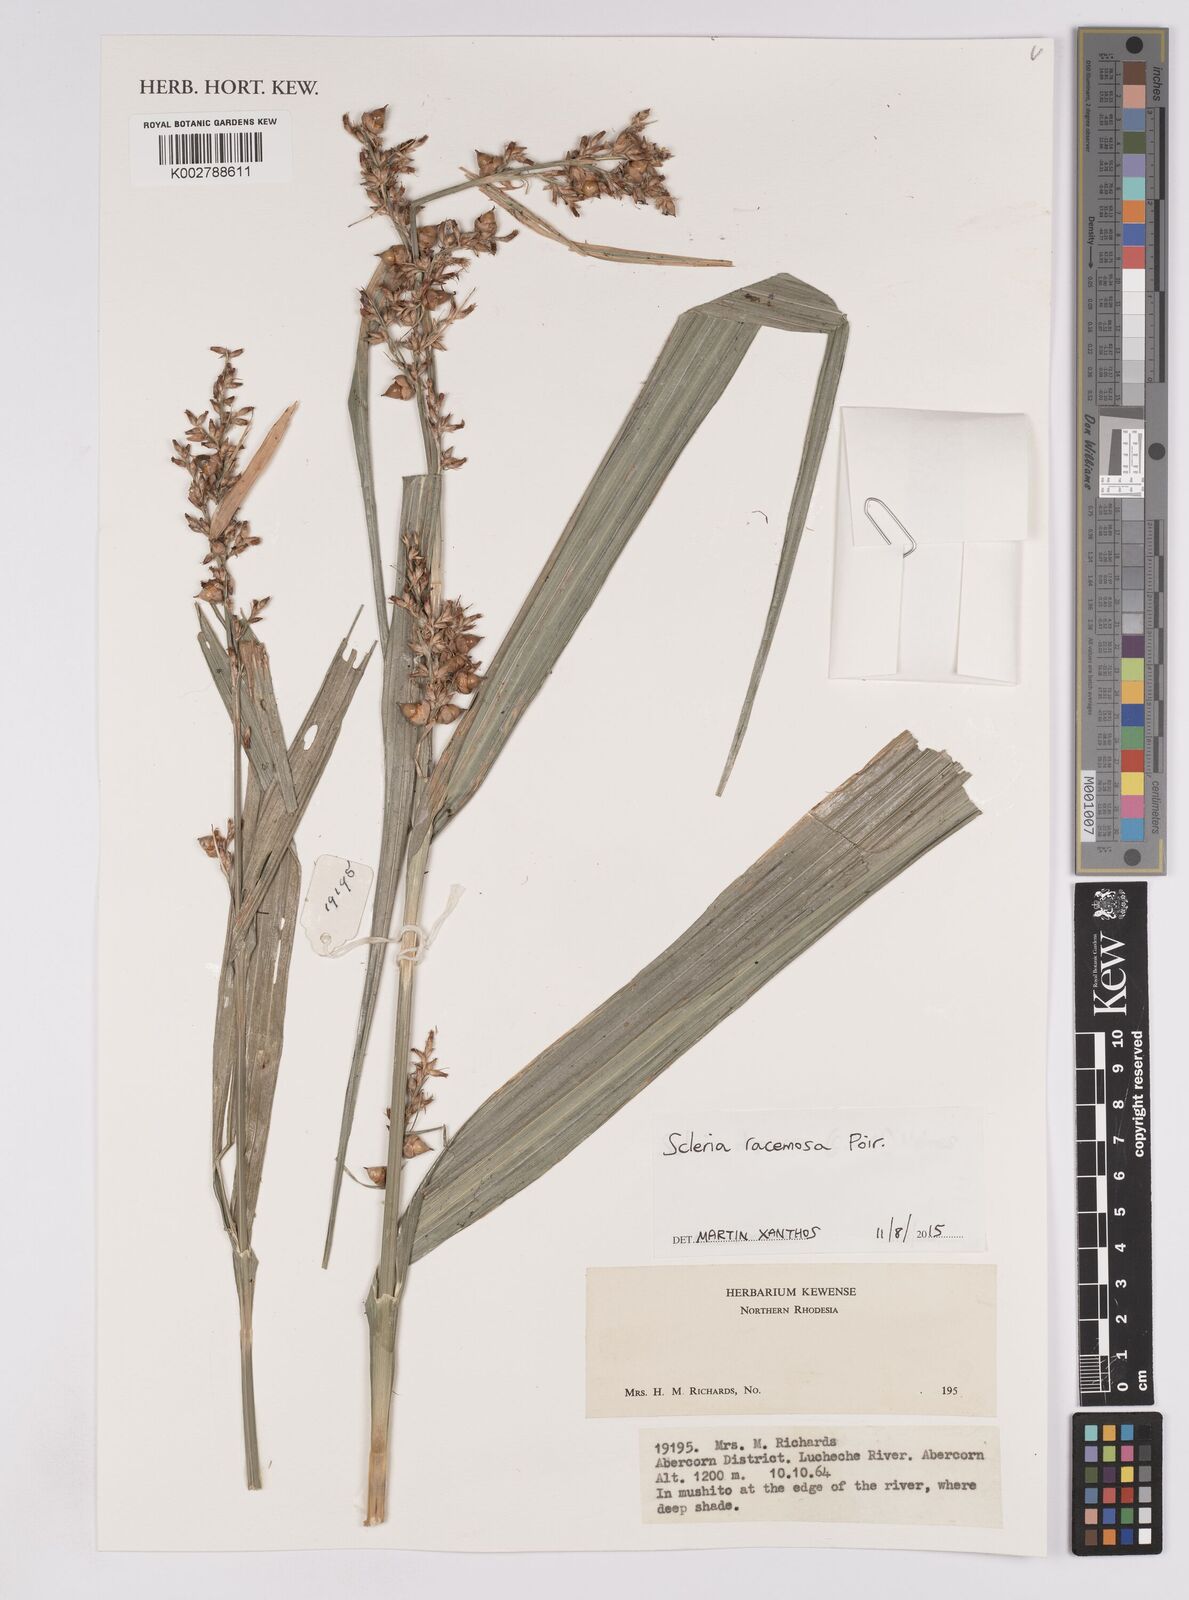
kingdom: Plantae
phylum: Tracheophyta
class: Liliopsida
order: Poales
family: Cyperaceae
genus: Scleria
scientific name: Scleria racemosa
